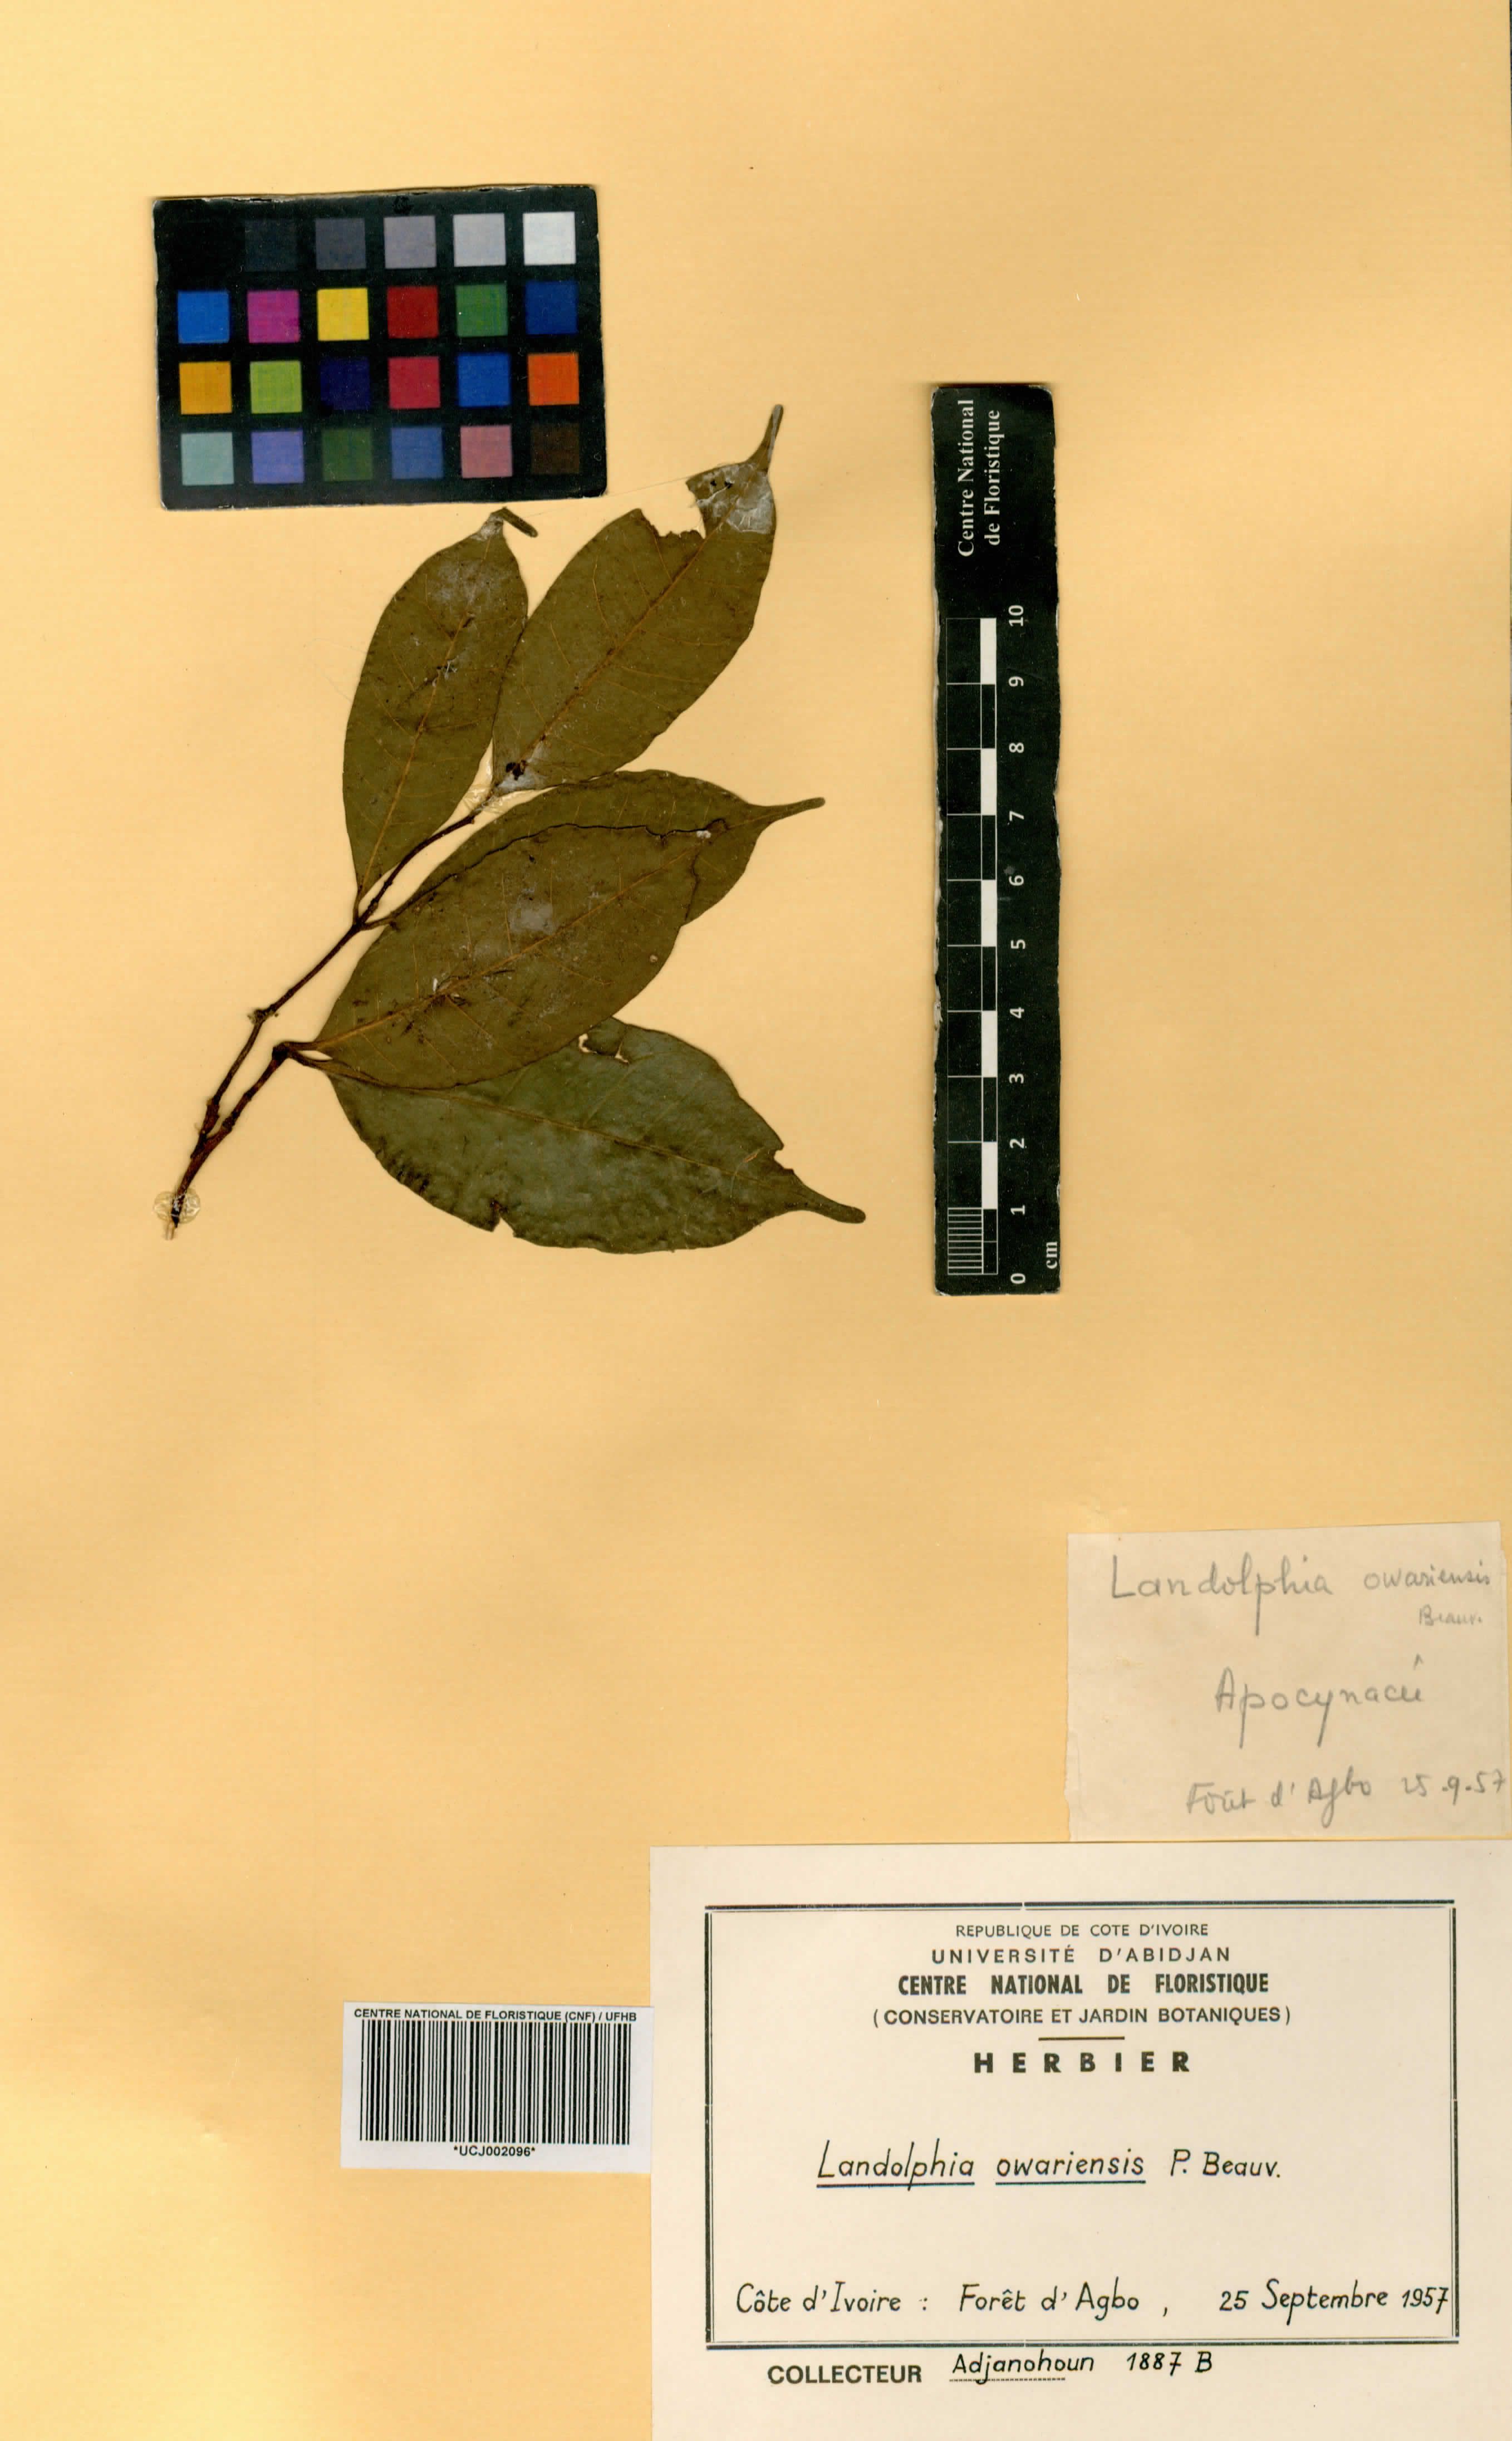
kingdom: Plantae
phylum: Tracheophyta
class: Magnoliopsida
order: Gentianales
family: Apocynaceae
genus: Landolphia
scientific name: Landolphia owariensis
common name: White-ball-rubber
